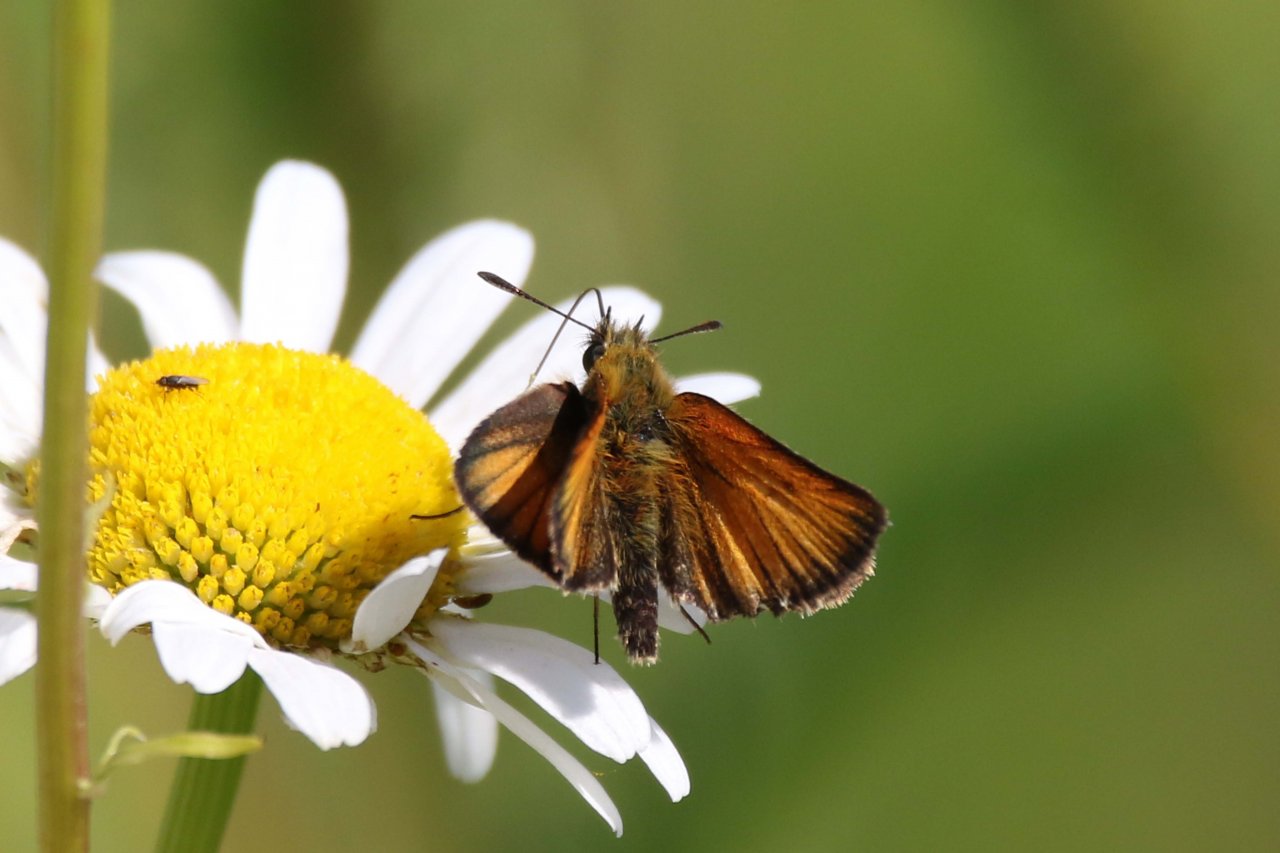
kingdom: Animalia
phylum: Arthropoda
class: Insecta
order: Lepidoptera
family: Hesperiidae
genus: Thymelicus
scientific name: Thymelicus lineola
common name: European Skipper
